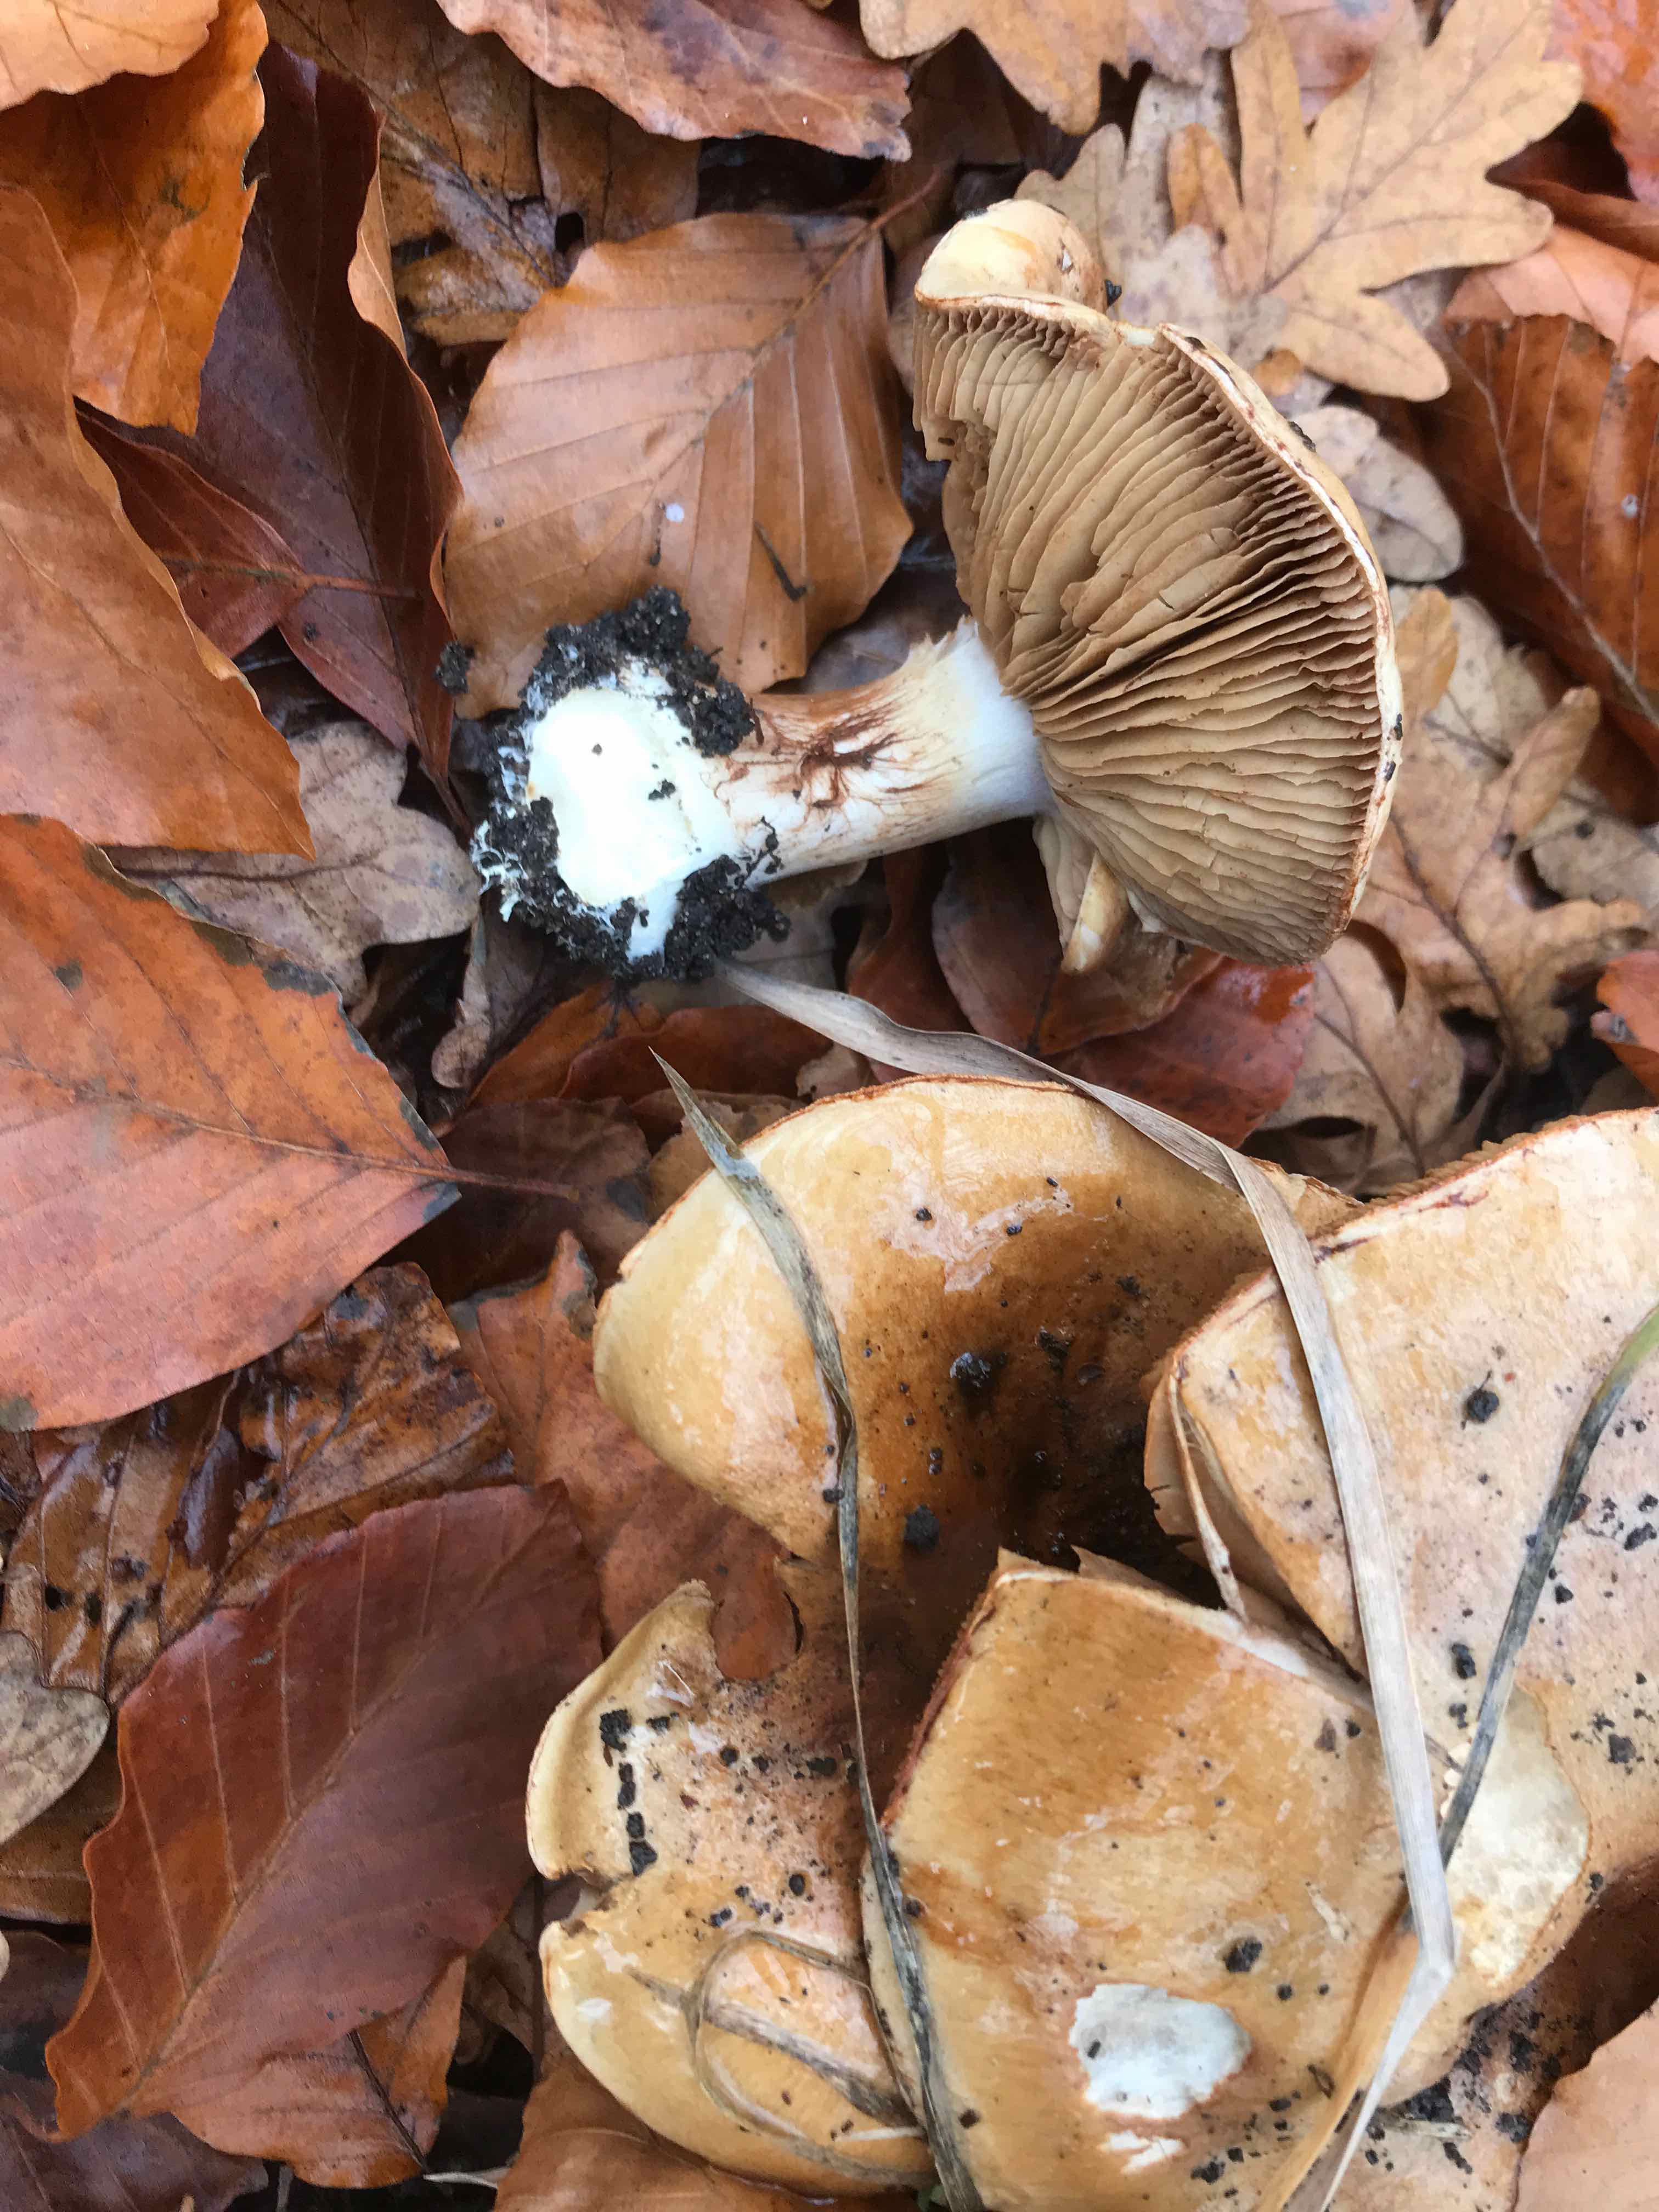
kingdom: Fungi
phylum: Basidiomycota
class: Agaricomycetes
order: Agaricales
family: Cortinariaceae
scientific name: Cortinariaceae
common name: slørhatfamilien
